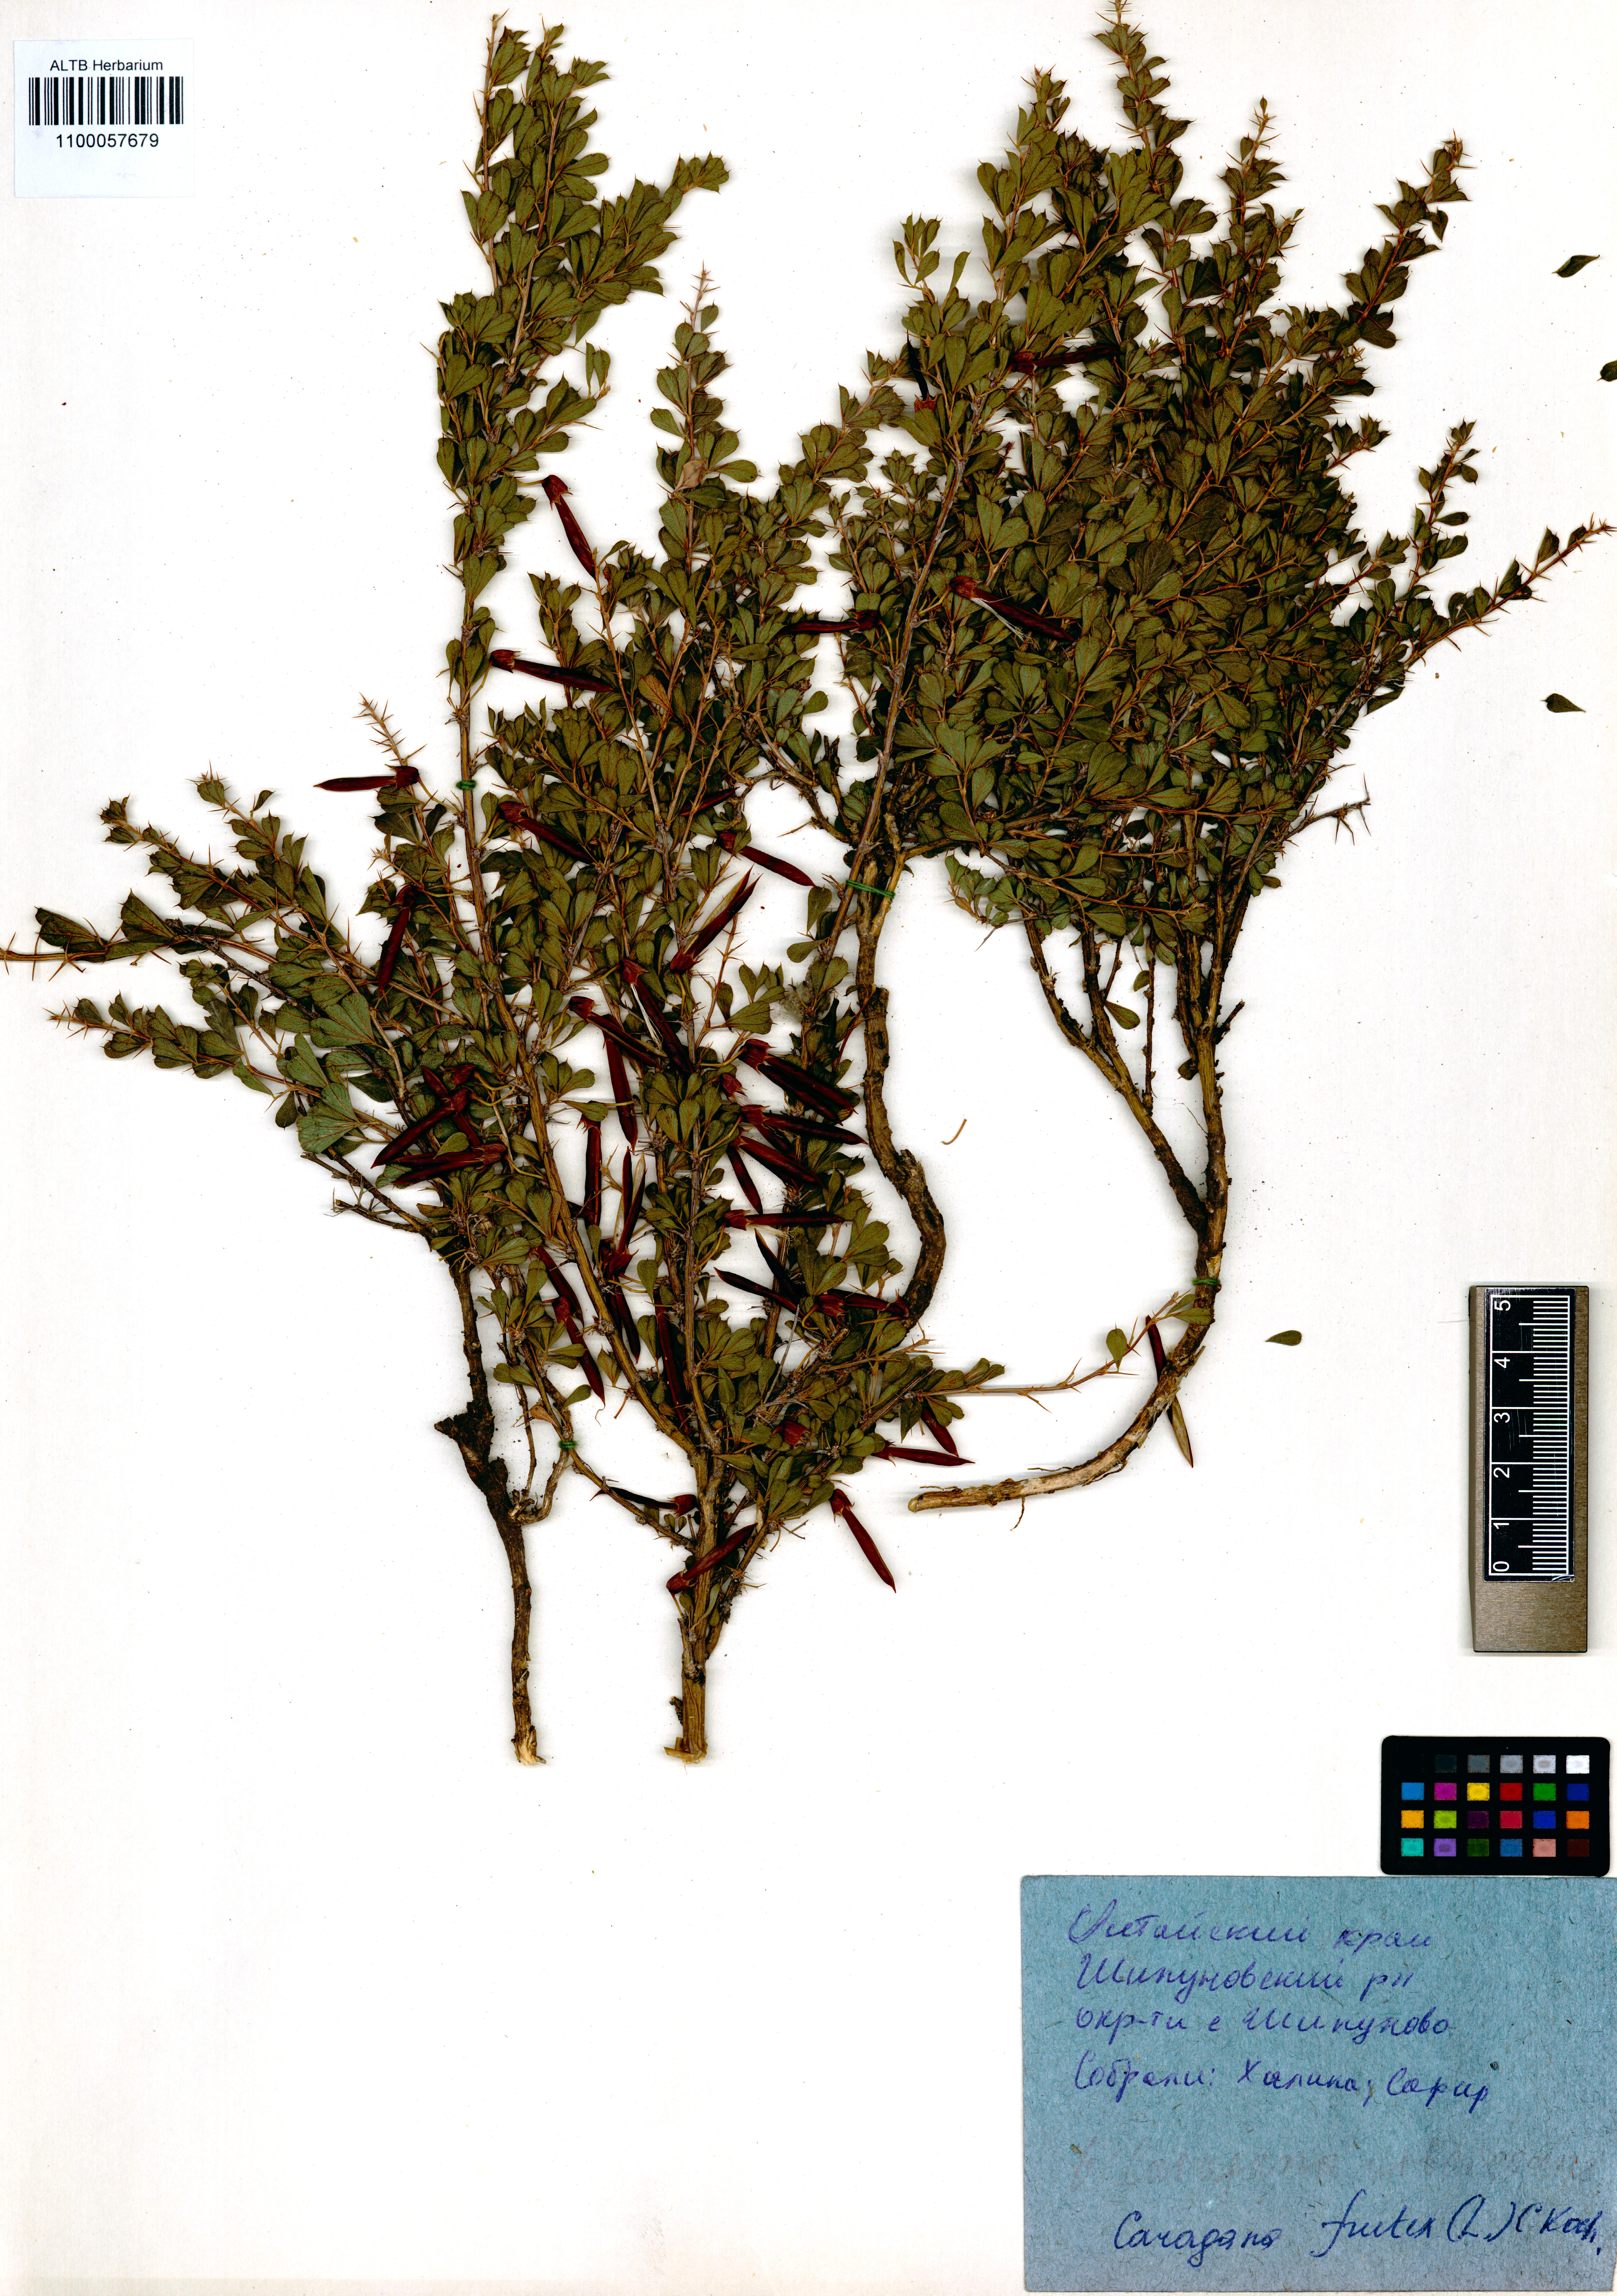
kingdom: Plantae
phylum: Tracheophyta
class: Magnoliopsida
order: Fabales
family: Fabaceae
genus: Caragana
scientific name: Caragana frutex
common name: Russian peashrub
